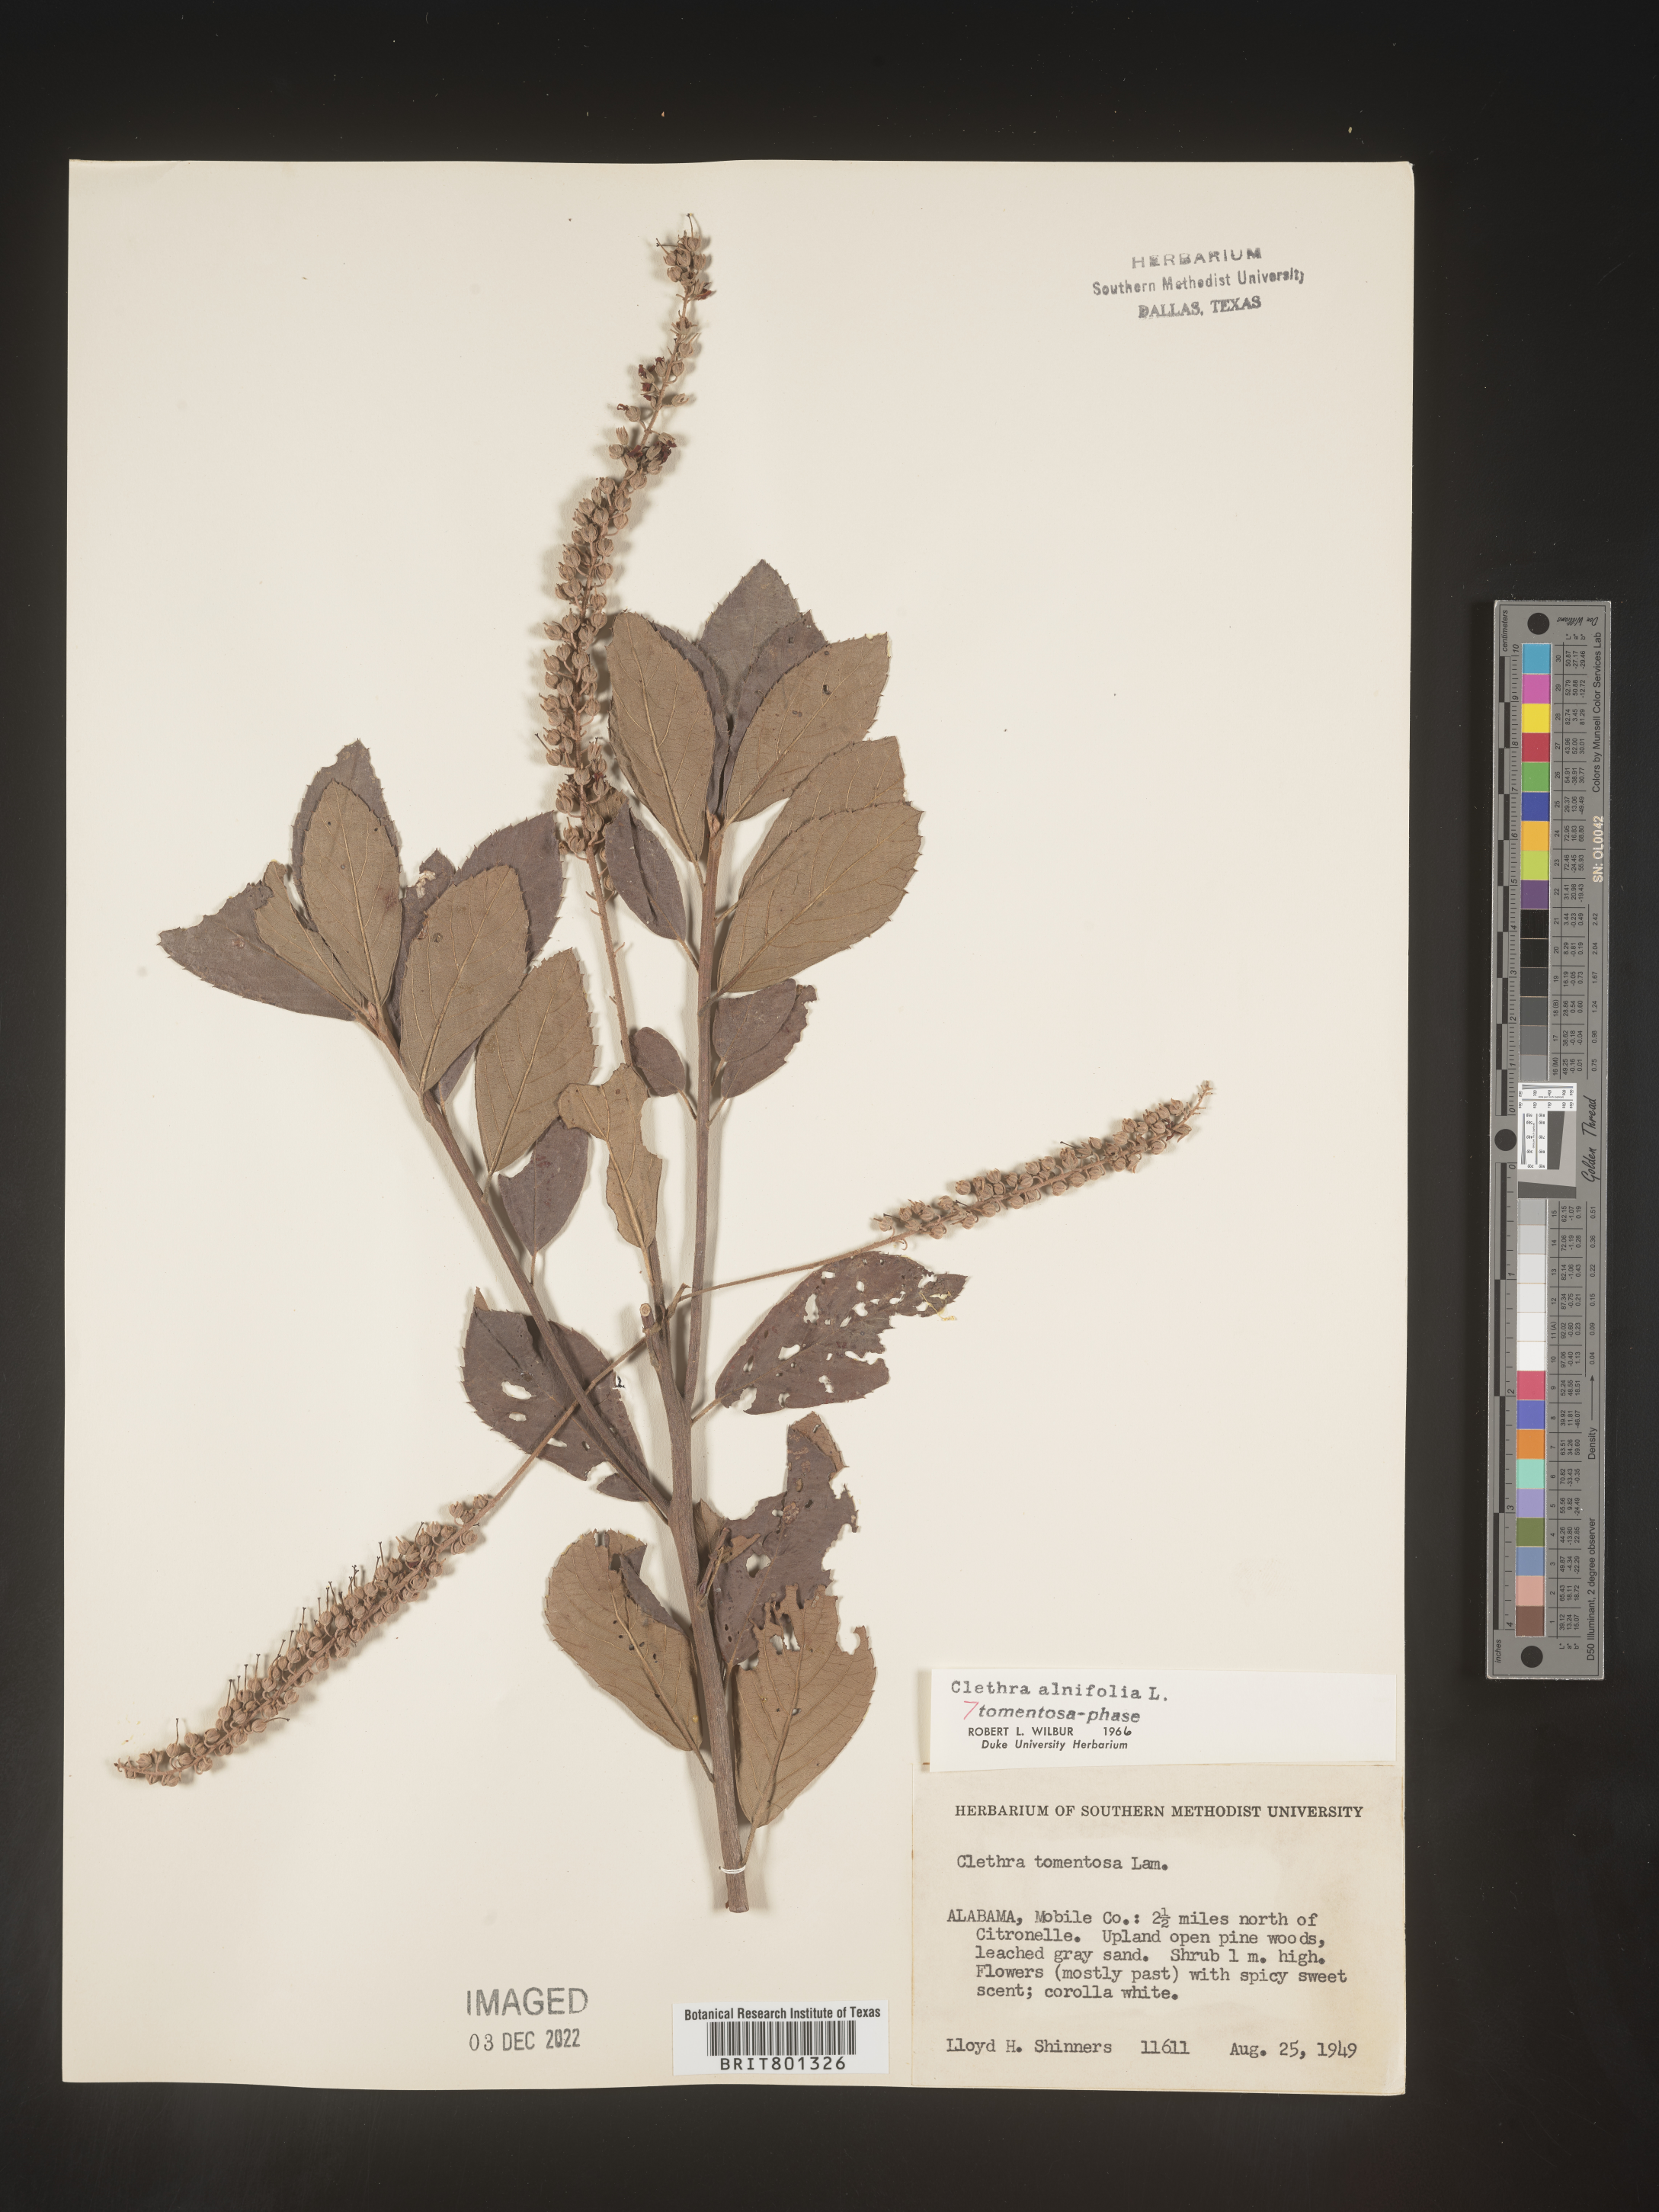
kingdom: Plantae
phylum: Tracheophyta
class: Magnoliopsida
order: Ericales
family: Clethraceae
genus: Clethra
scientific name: Clethra alnifolia
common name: Sweet pepperbush
